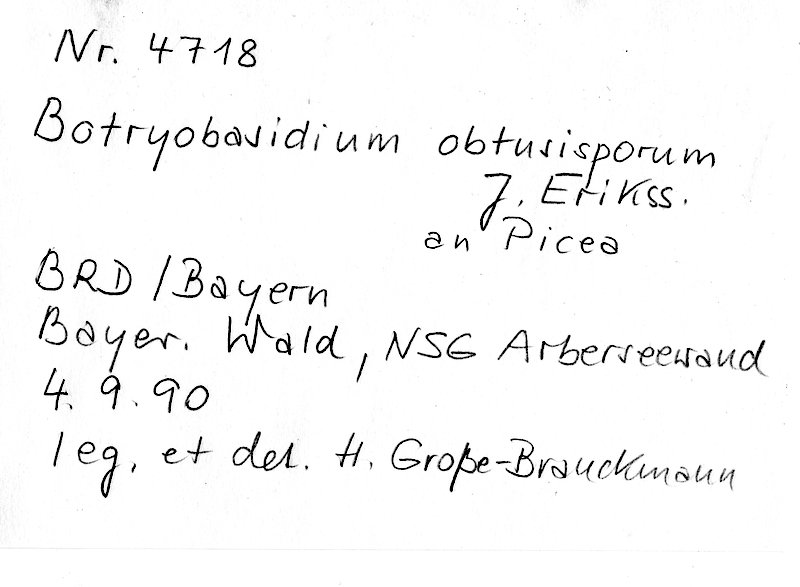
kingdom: Plantae
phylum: Tracheophyta
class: Pinopsida
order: Pinales
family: Pinaceae
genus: Picea
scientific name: Picea
